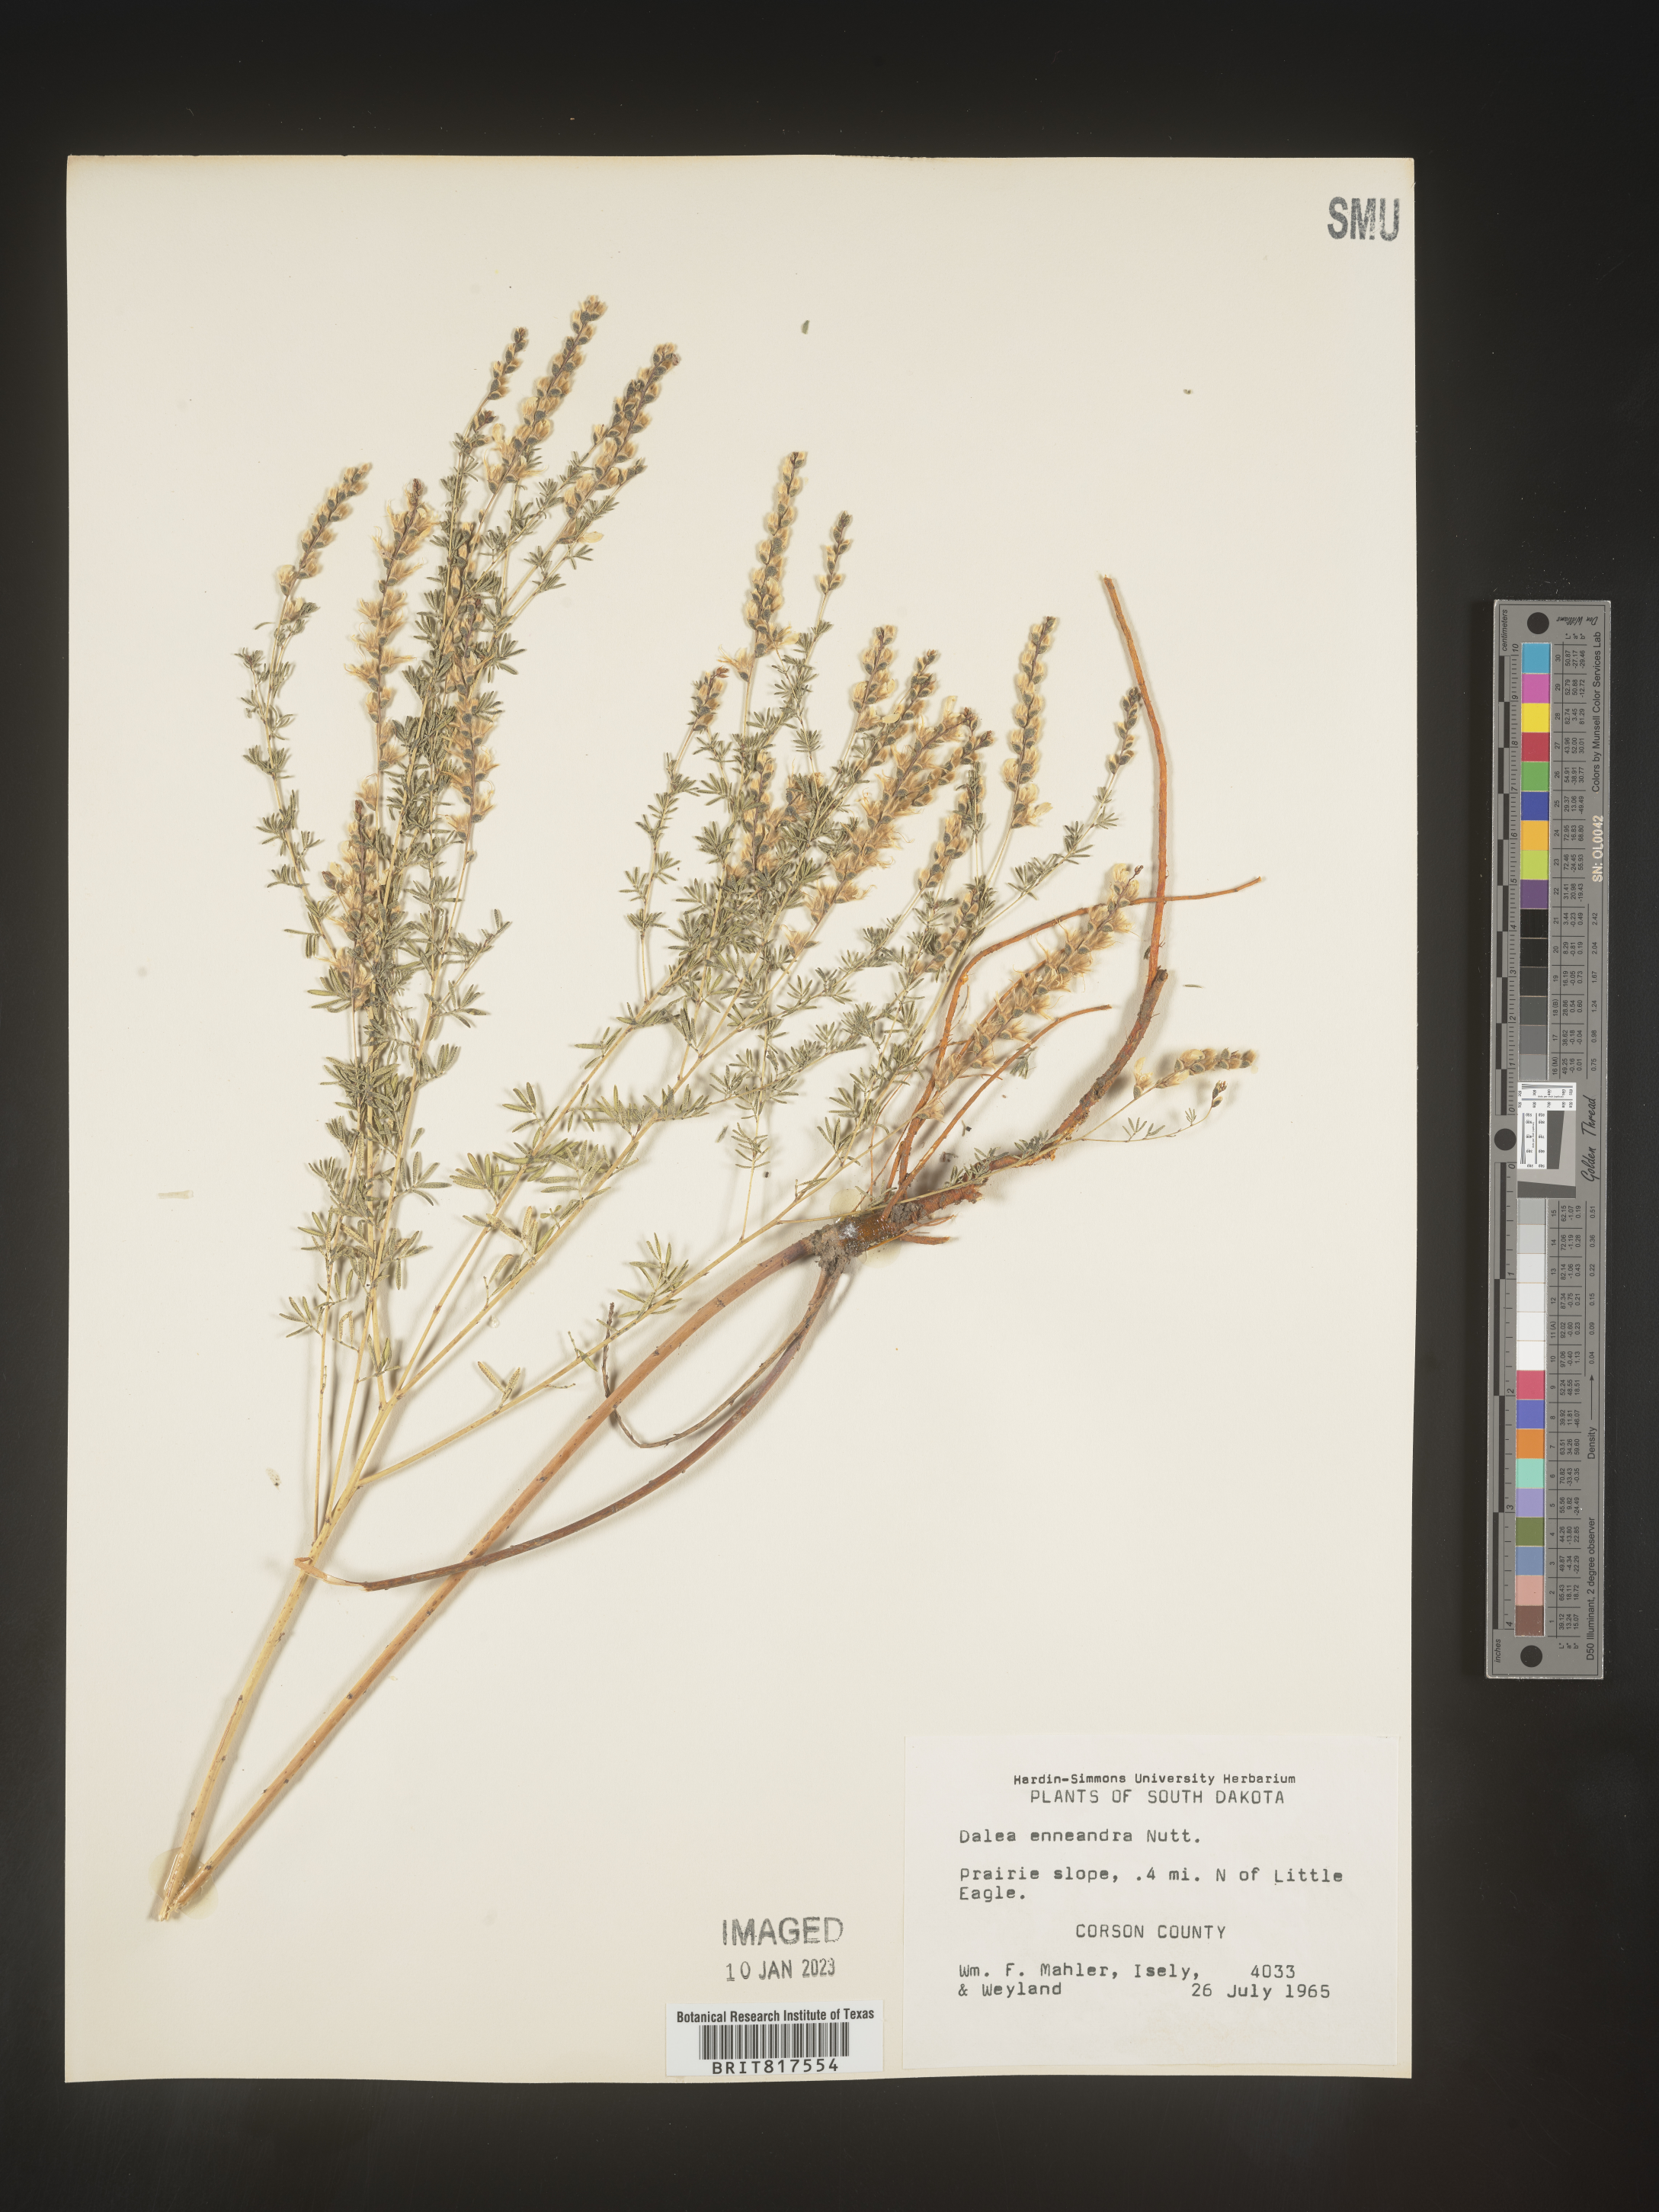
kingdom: Plantae
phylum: Tracheophyta
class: Magnoliopsida
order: Fabales
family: Fabaceae
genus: Dalea
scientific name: Dalea enneandra
